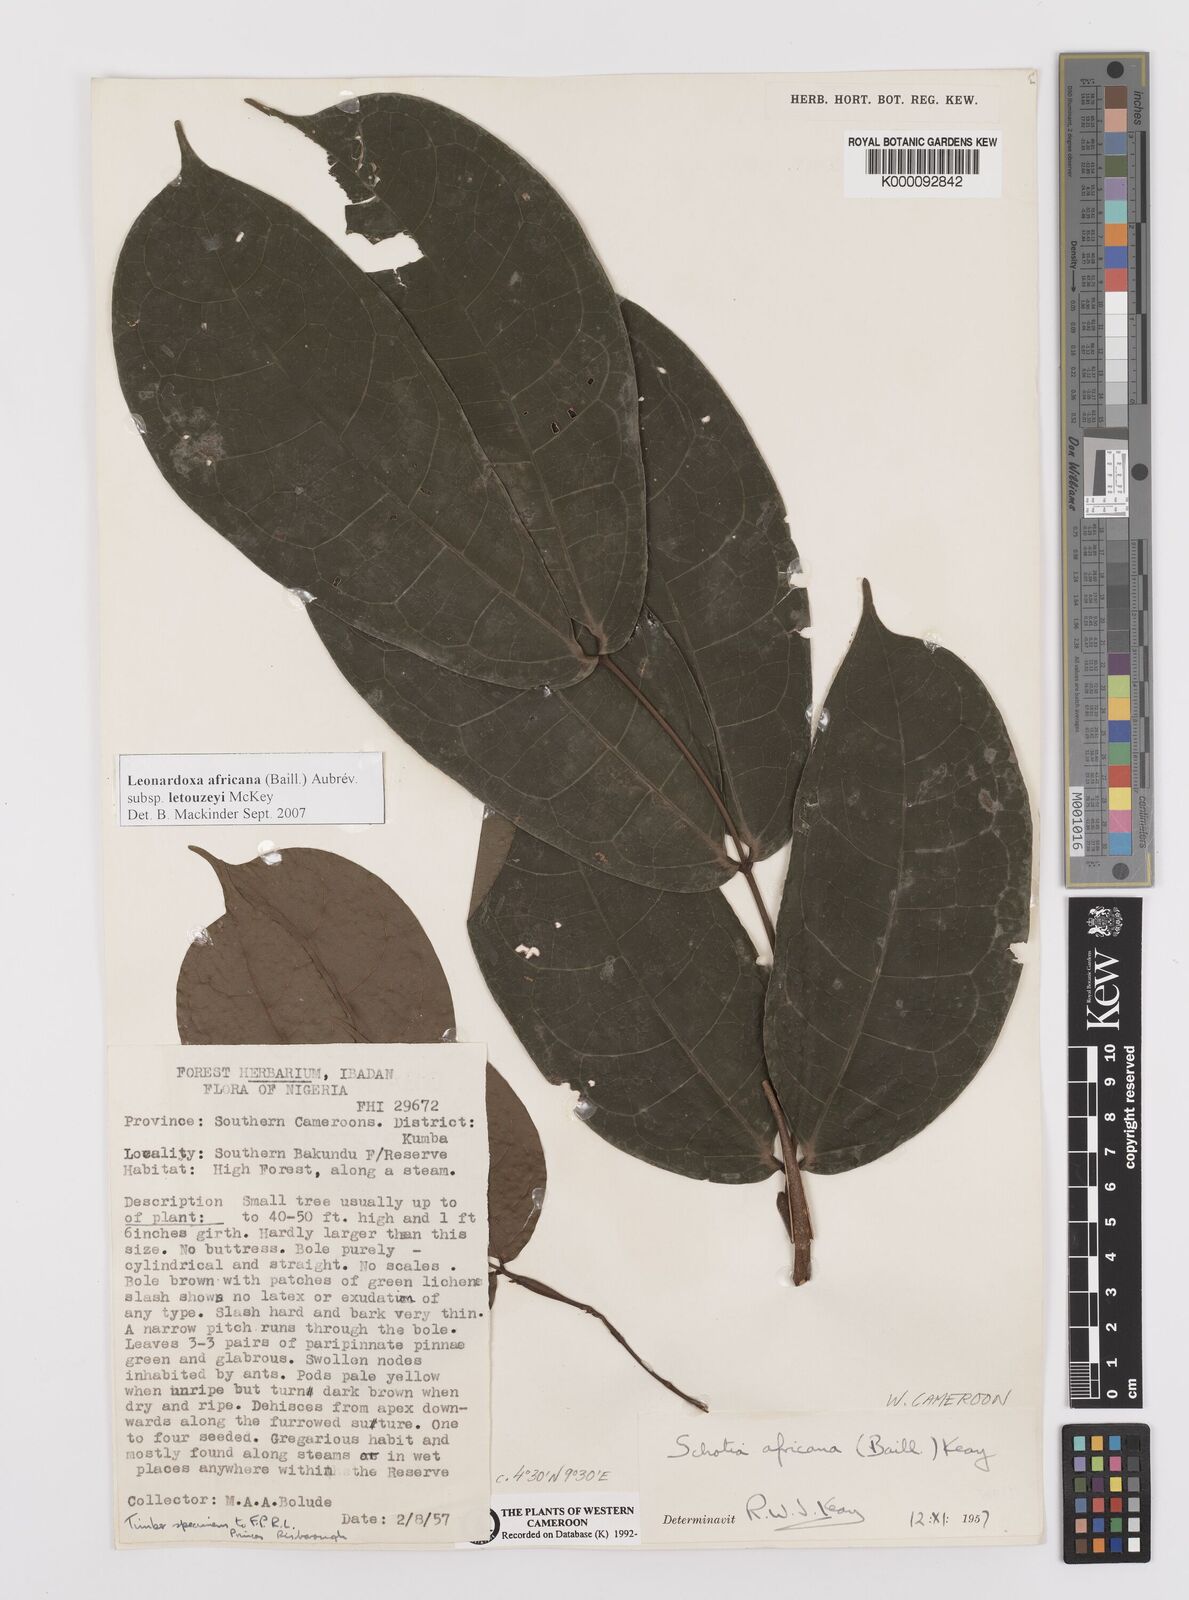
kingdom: Plantae
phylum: Tracheophyta
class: Magnoliopsida
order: Fabales
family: Fabaceae
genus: Schotia
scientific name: Schotia
